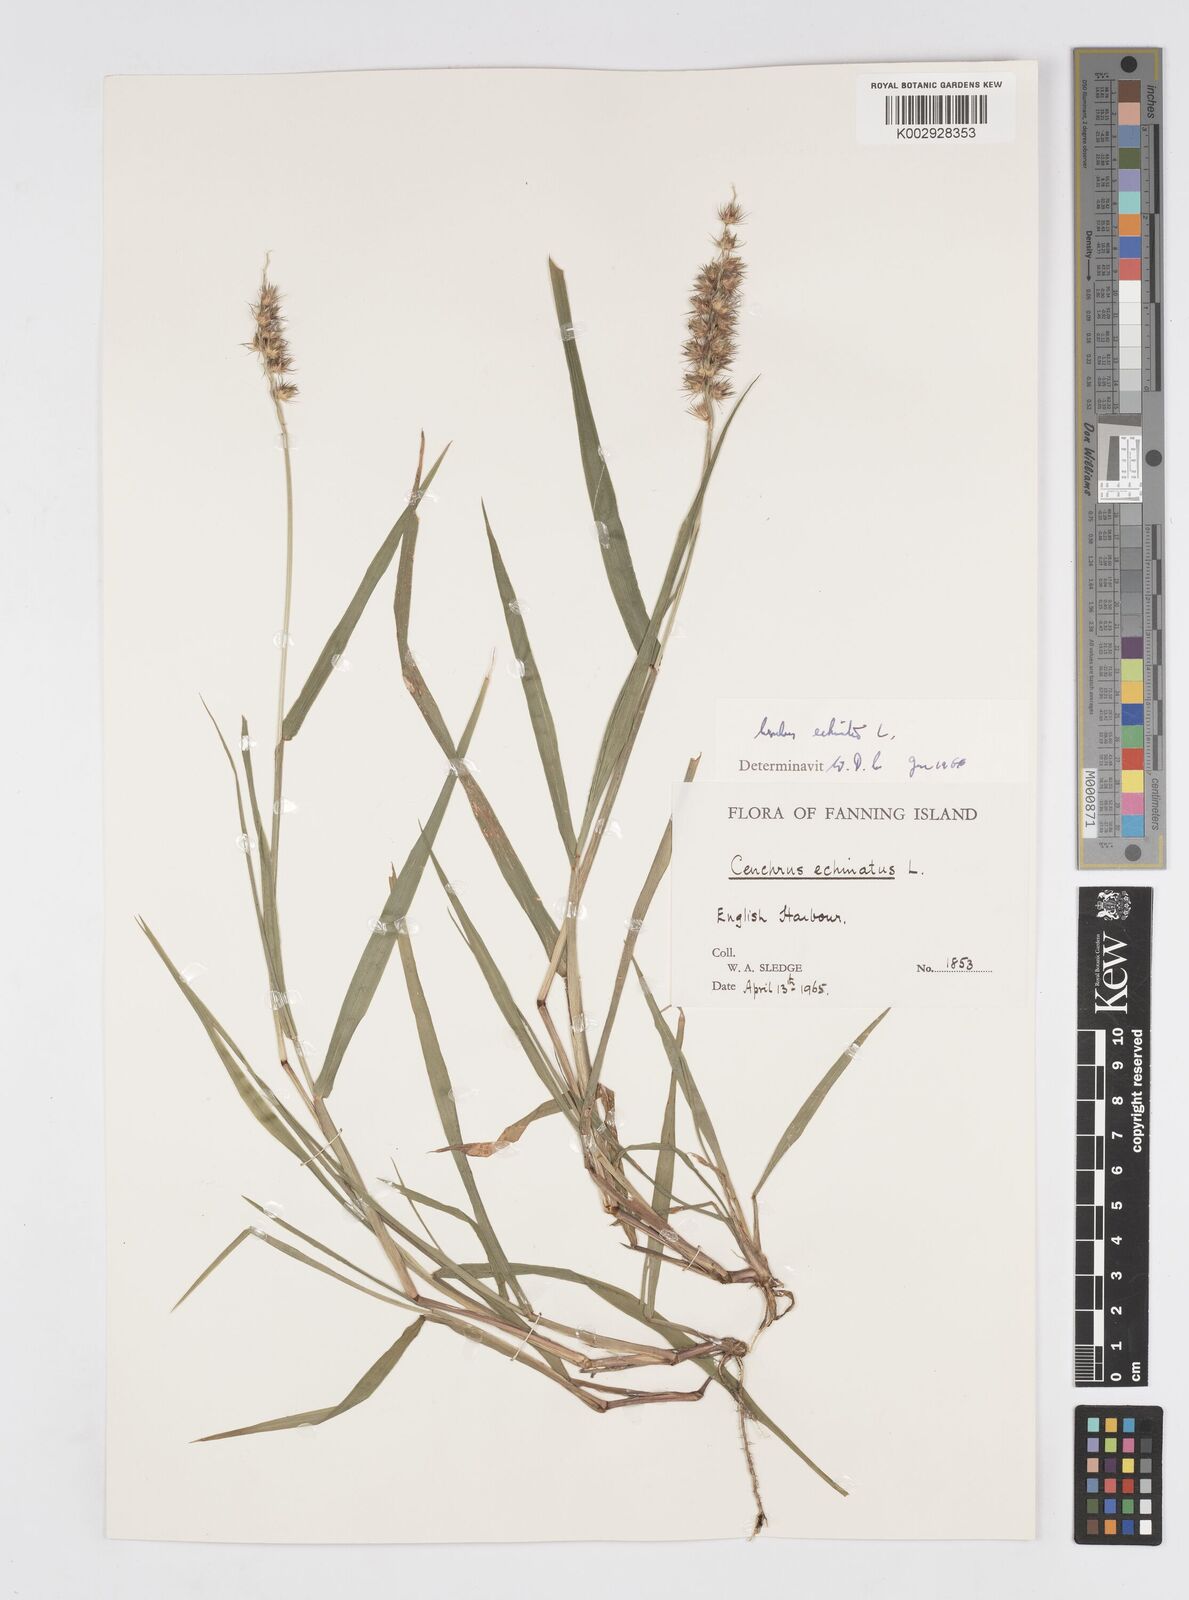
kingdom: Plantae
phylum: Tracheophyta
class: Liliopsida
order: Poales
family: Poaceae
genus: Cenchrus
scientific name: Cenchrus echinatus
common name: Southern sandbur
